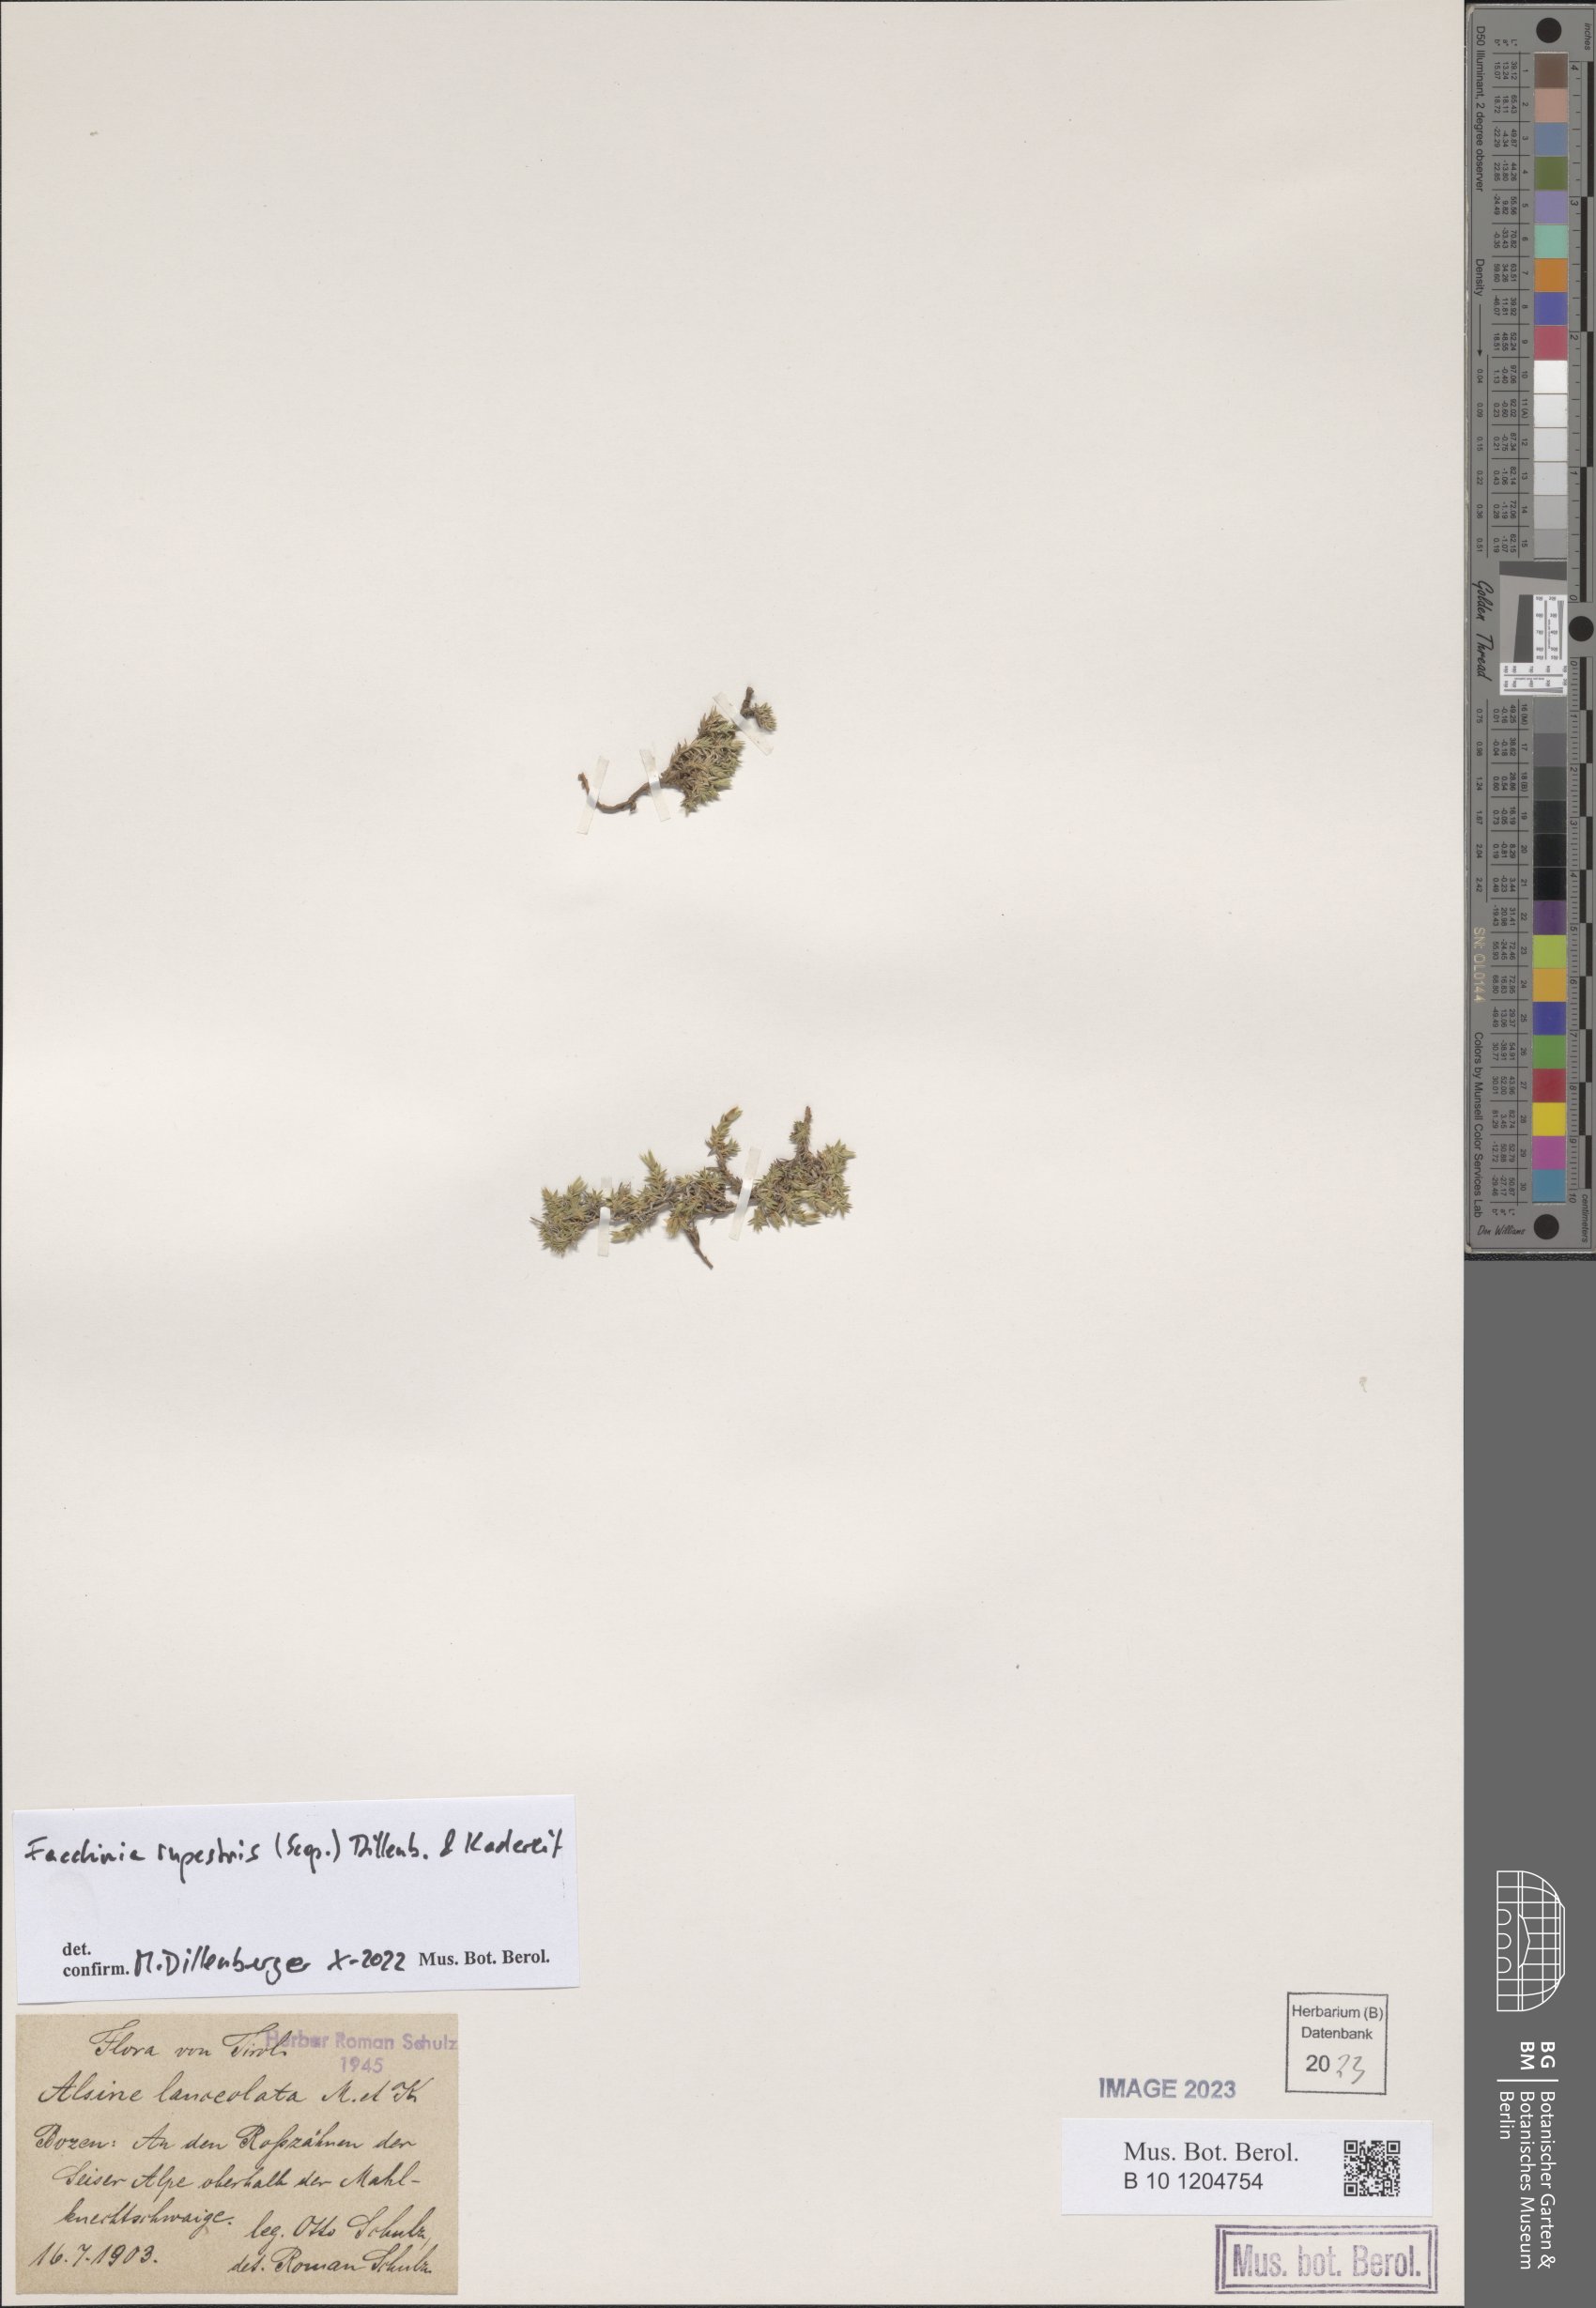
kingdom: Plantae
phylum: Tracheophyta
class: Magnoliopsida
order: Caryophyllales
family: Caryophyllaceae
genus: Facchinia
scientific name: Facchinia rupestris
